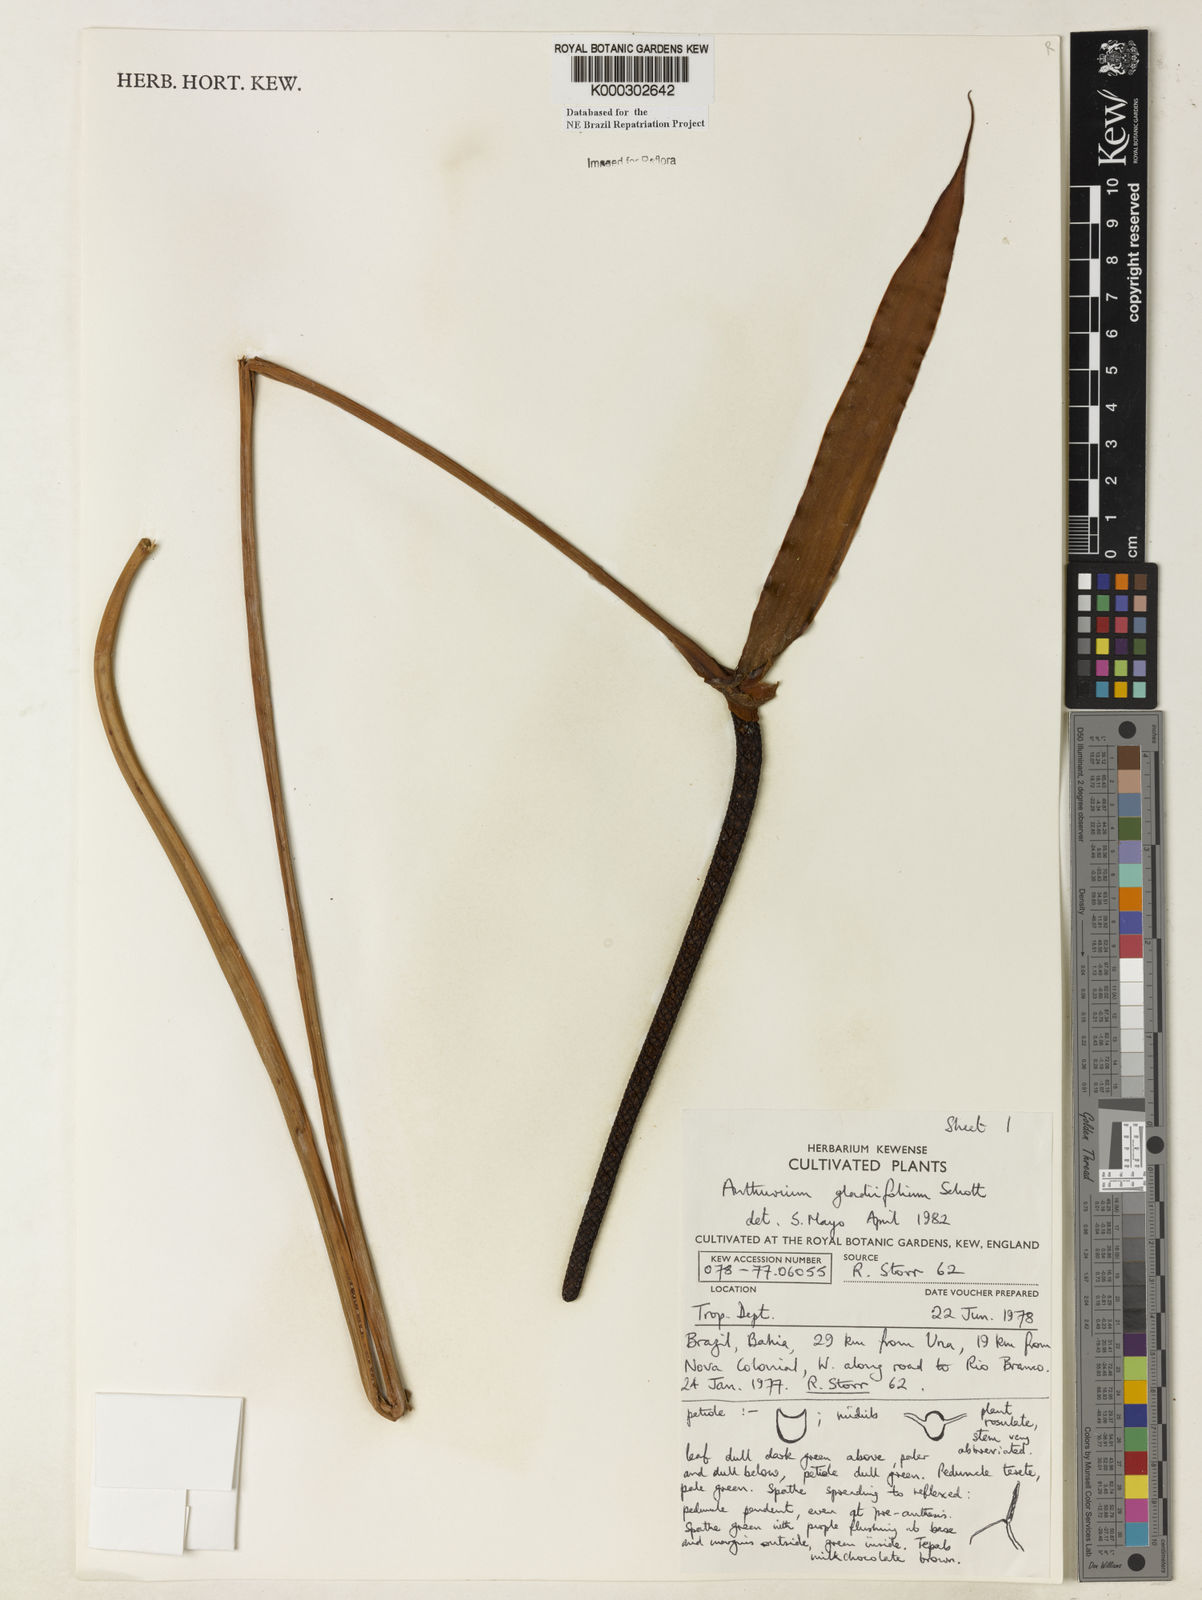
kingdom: Plantae
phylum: Tracheophyta
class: Liliopsida
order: Alismatales
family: Araceae
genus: Anthurium
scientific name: Anthurium gladiifolium
